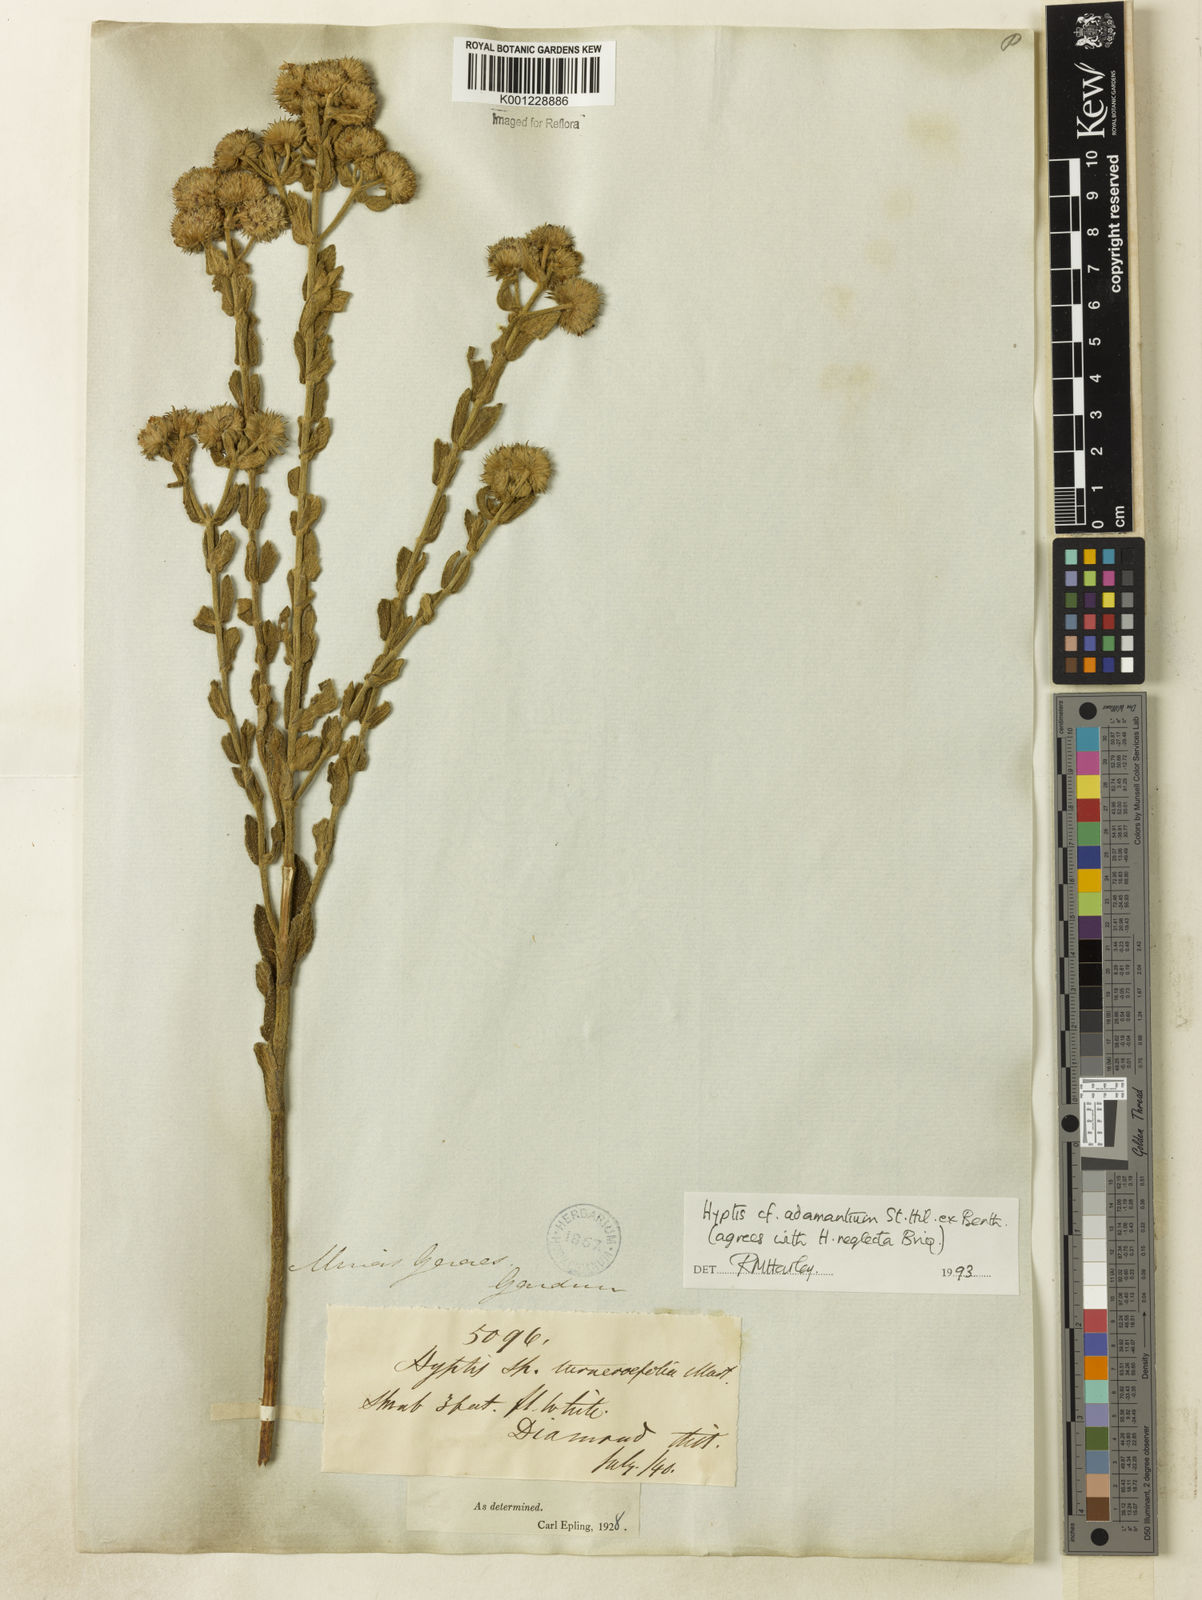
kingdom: Plantae
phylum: Tracheophyta
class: Magnoliopsida
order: Lamiales
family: Lamiaceae
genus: Hyptis
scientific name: Hyptis adamantium
